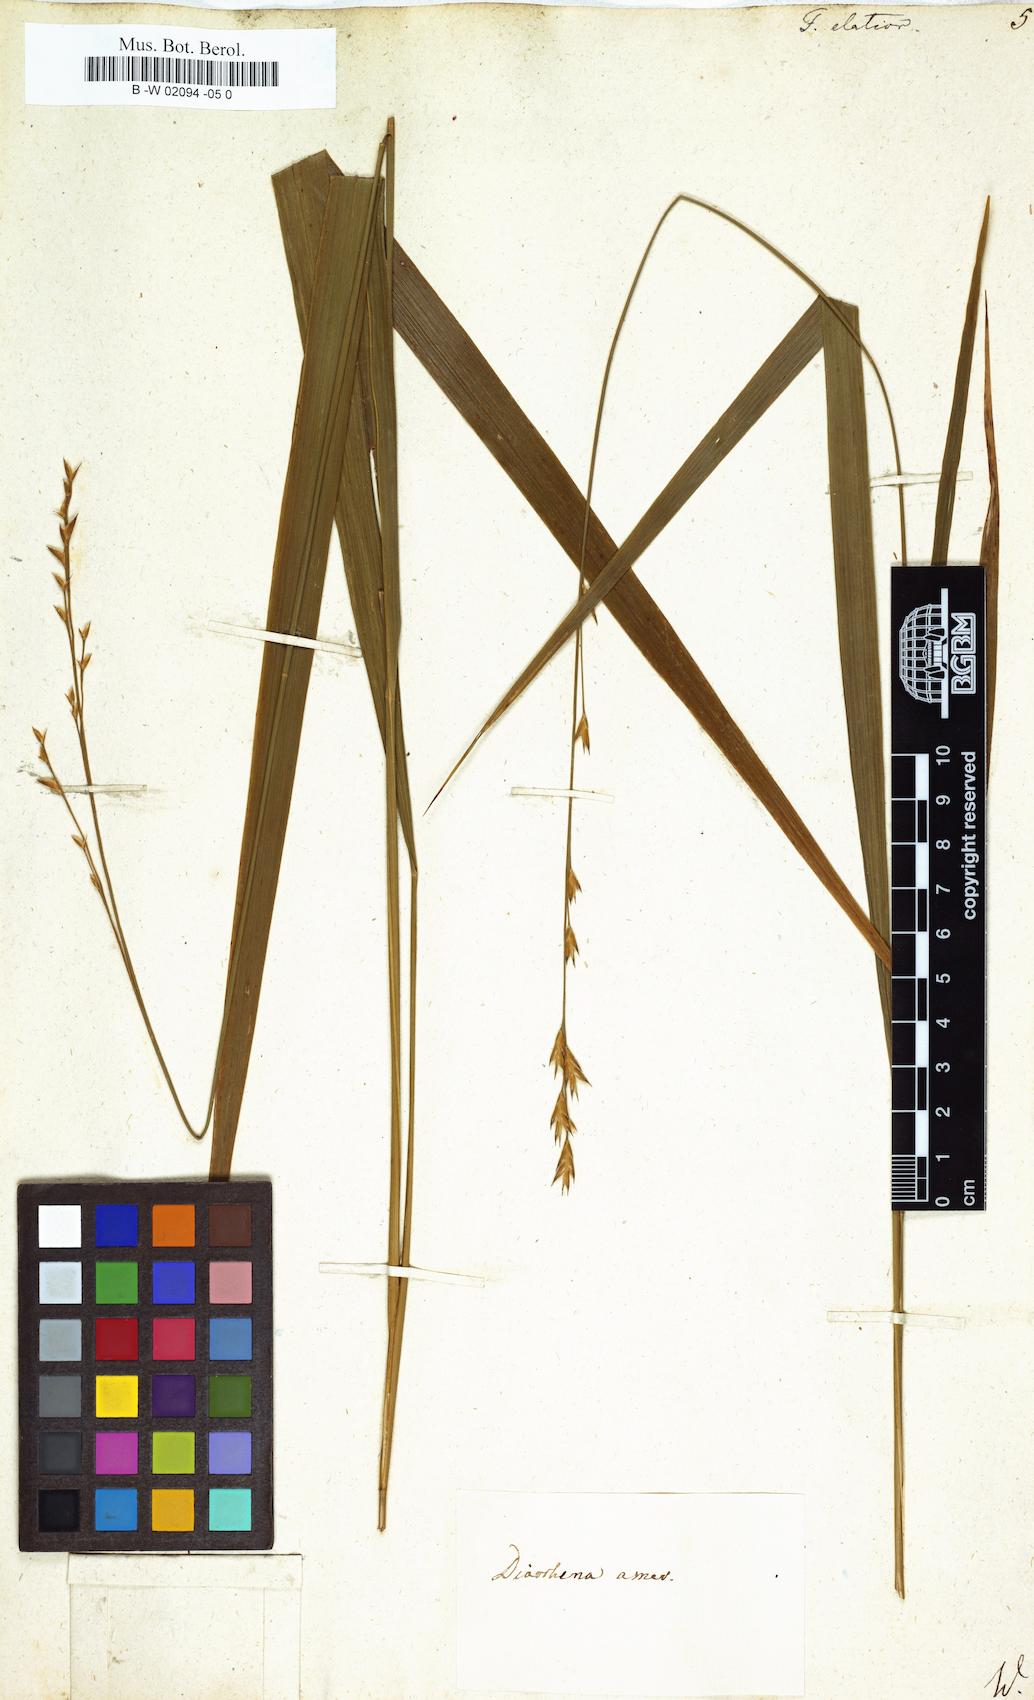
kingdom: Plantae
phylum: Tracheophyta
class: Liliopsida
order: Poales
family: Poaceae
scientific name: Poaceae
